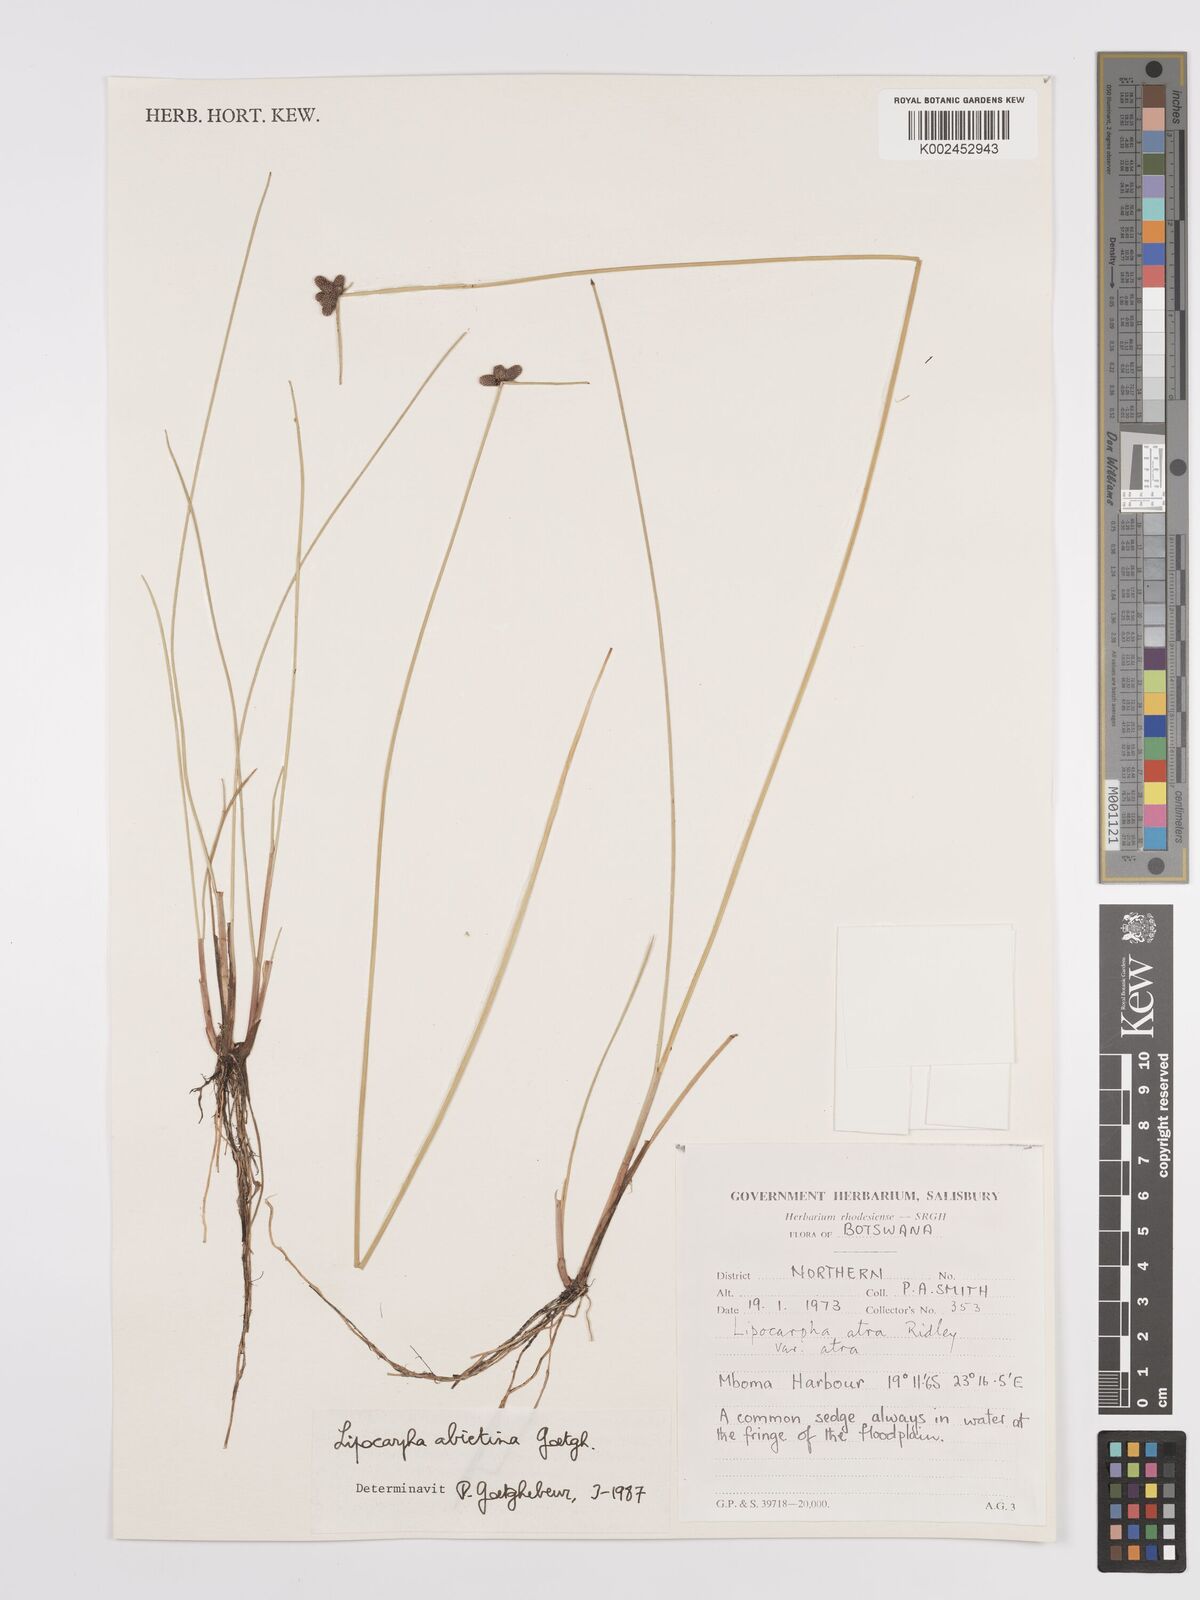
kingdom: Plantae
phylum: Tracheophyta
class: Liliopsida
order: Poales
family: Cyperaceae
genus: Cyperus
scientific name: Cyperus abietinus
